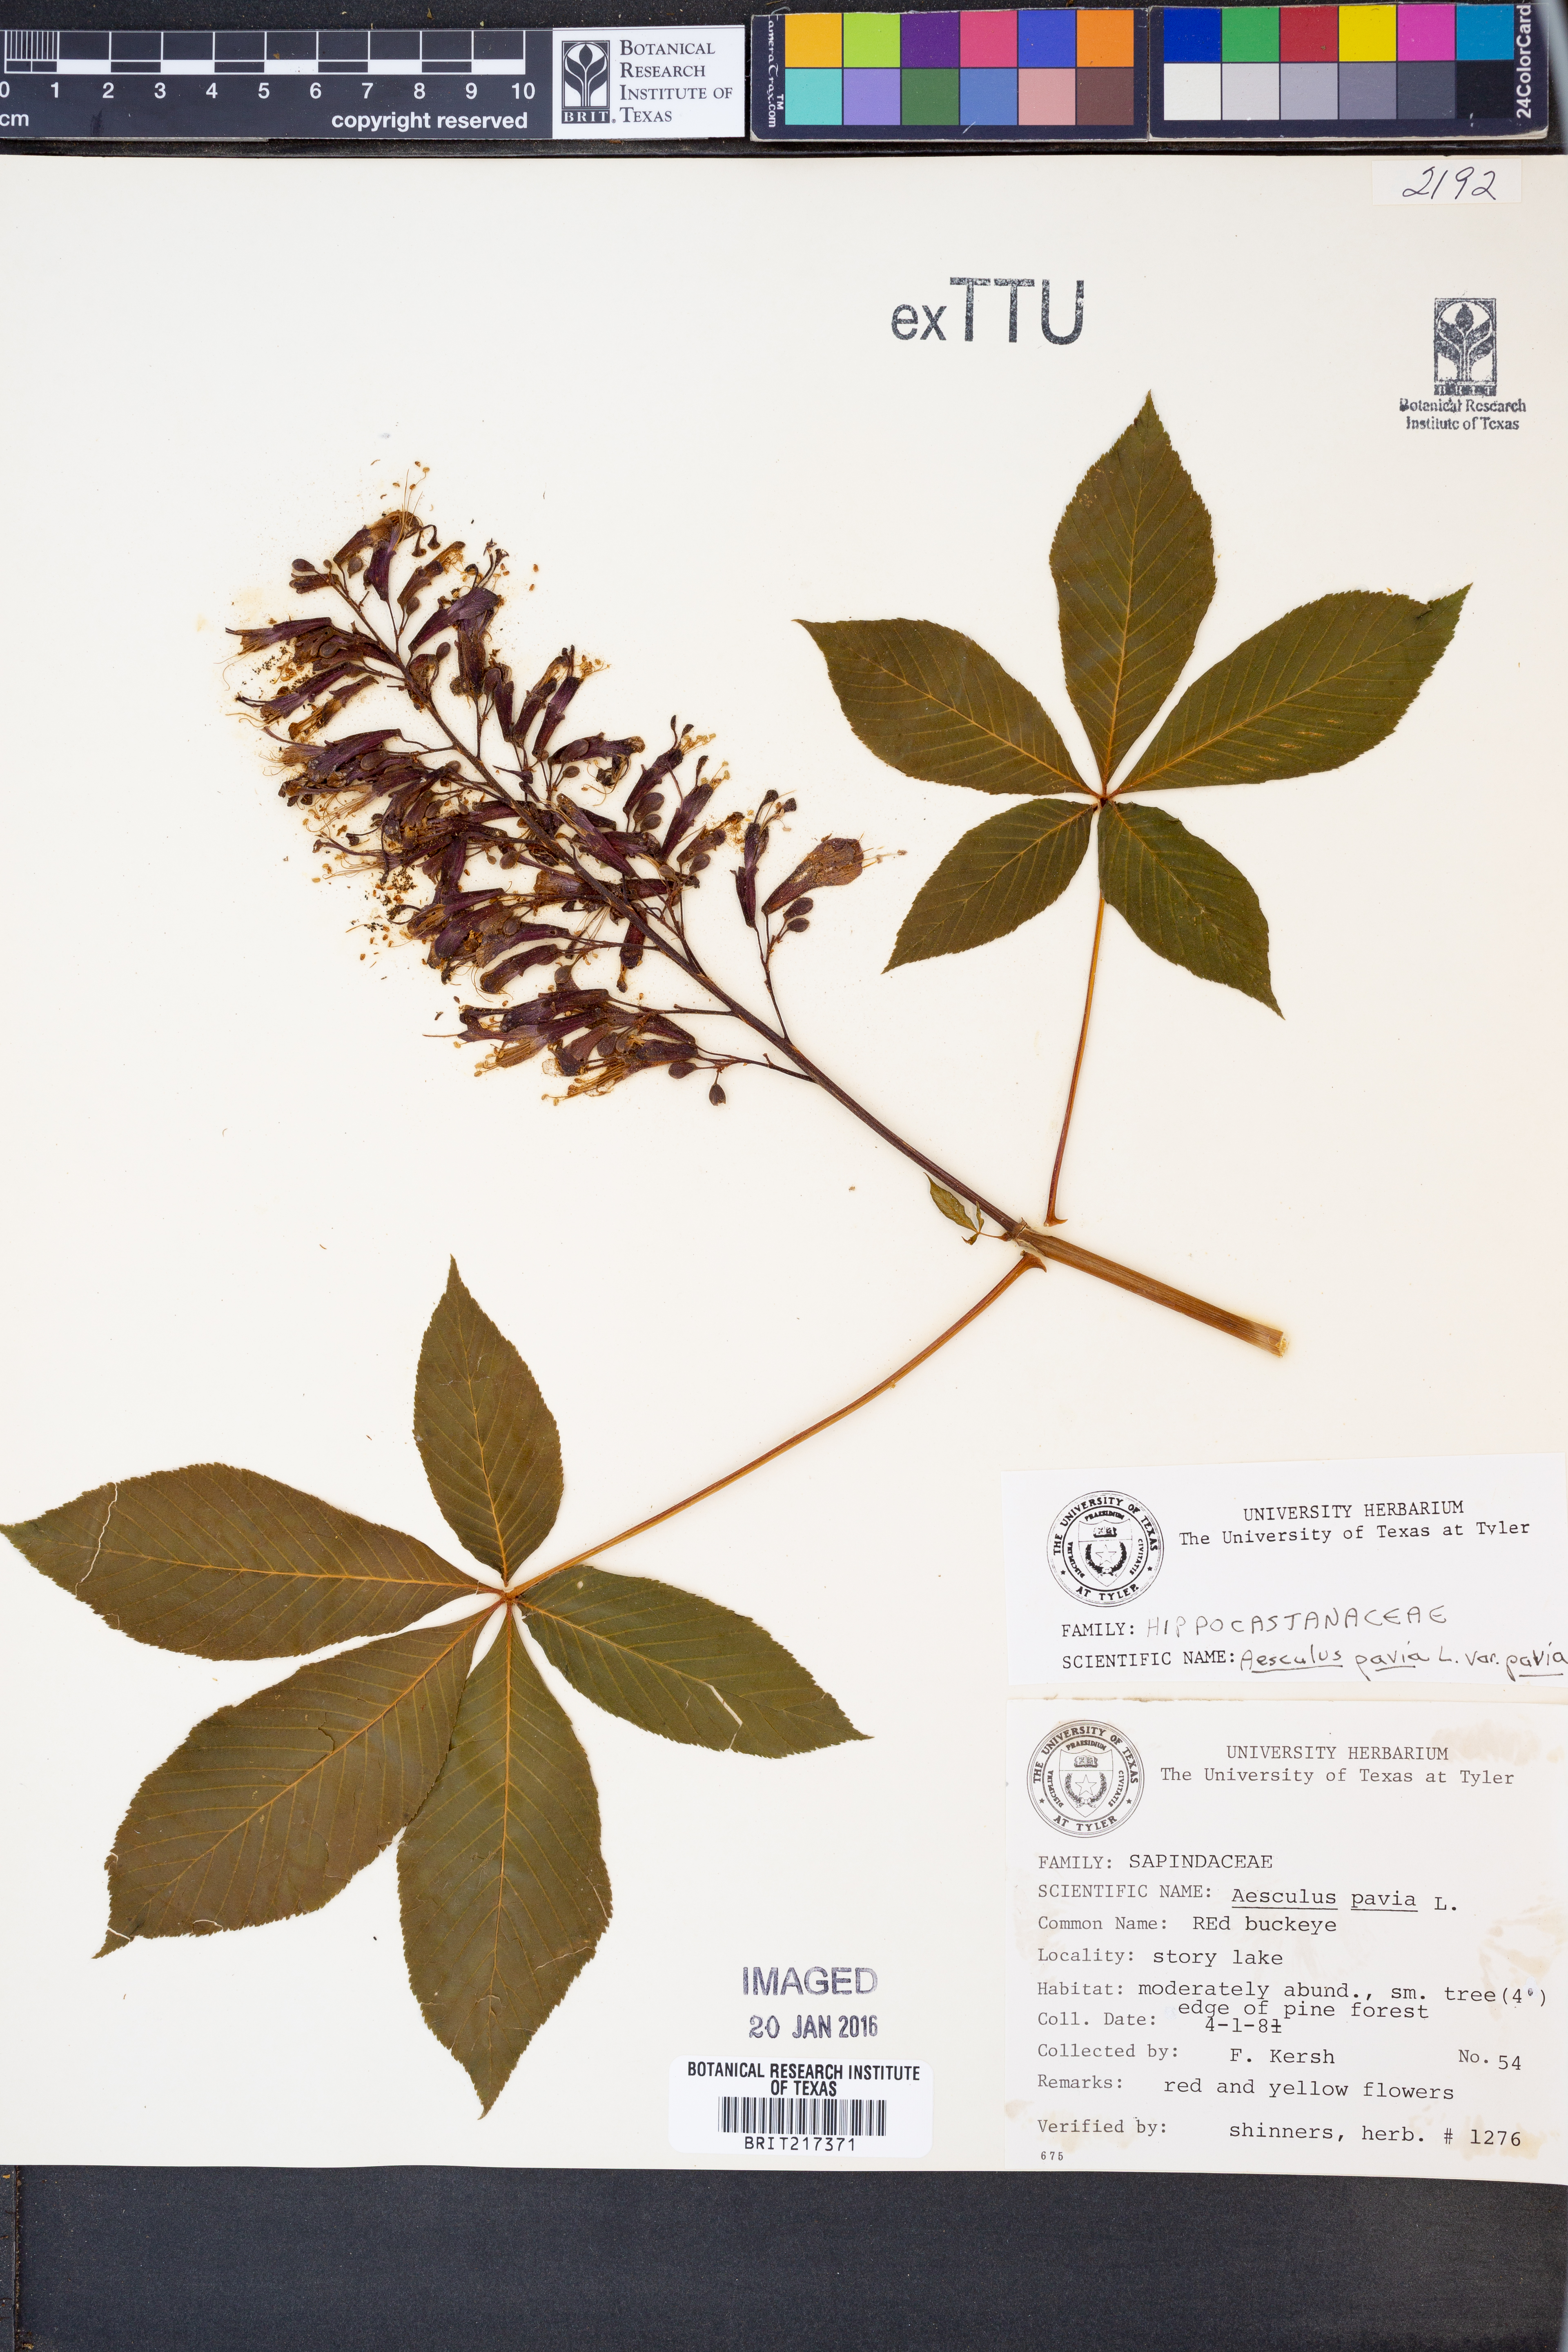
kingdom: Plantae
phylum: Tracheophyta
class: Magnoliopsida
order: Sapindales
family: Sapindaceae
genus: Aesculus
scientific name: Aesculus pavia
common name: Red buckeye
